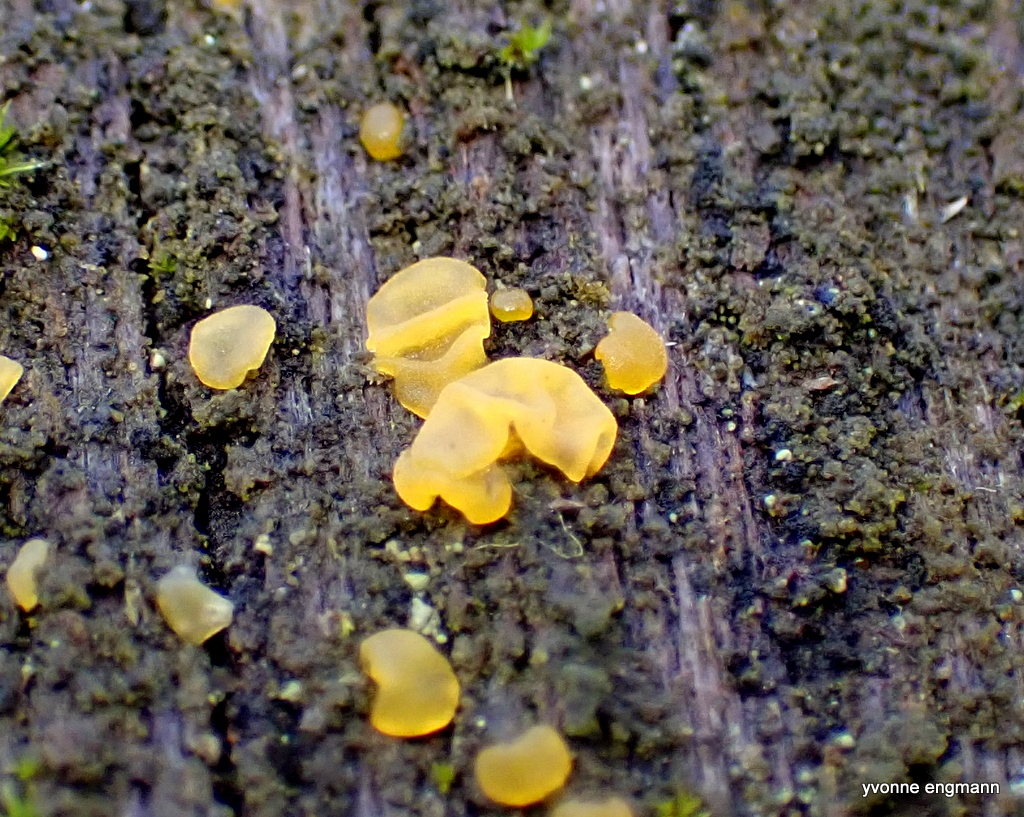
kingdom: Fungi
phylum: Basidiomycota
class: Dacrymycetes
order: Dacrymycetales
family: Dacrymycetaceae
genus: Dacrymyces
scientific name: Dacrymyces
